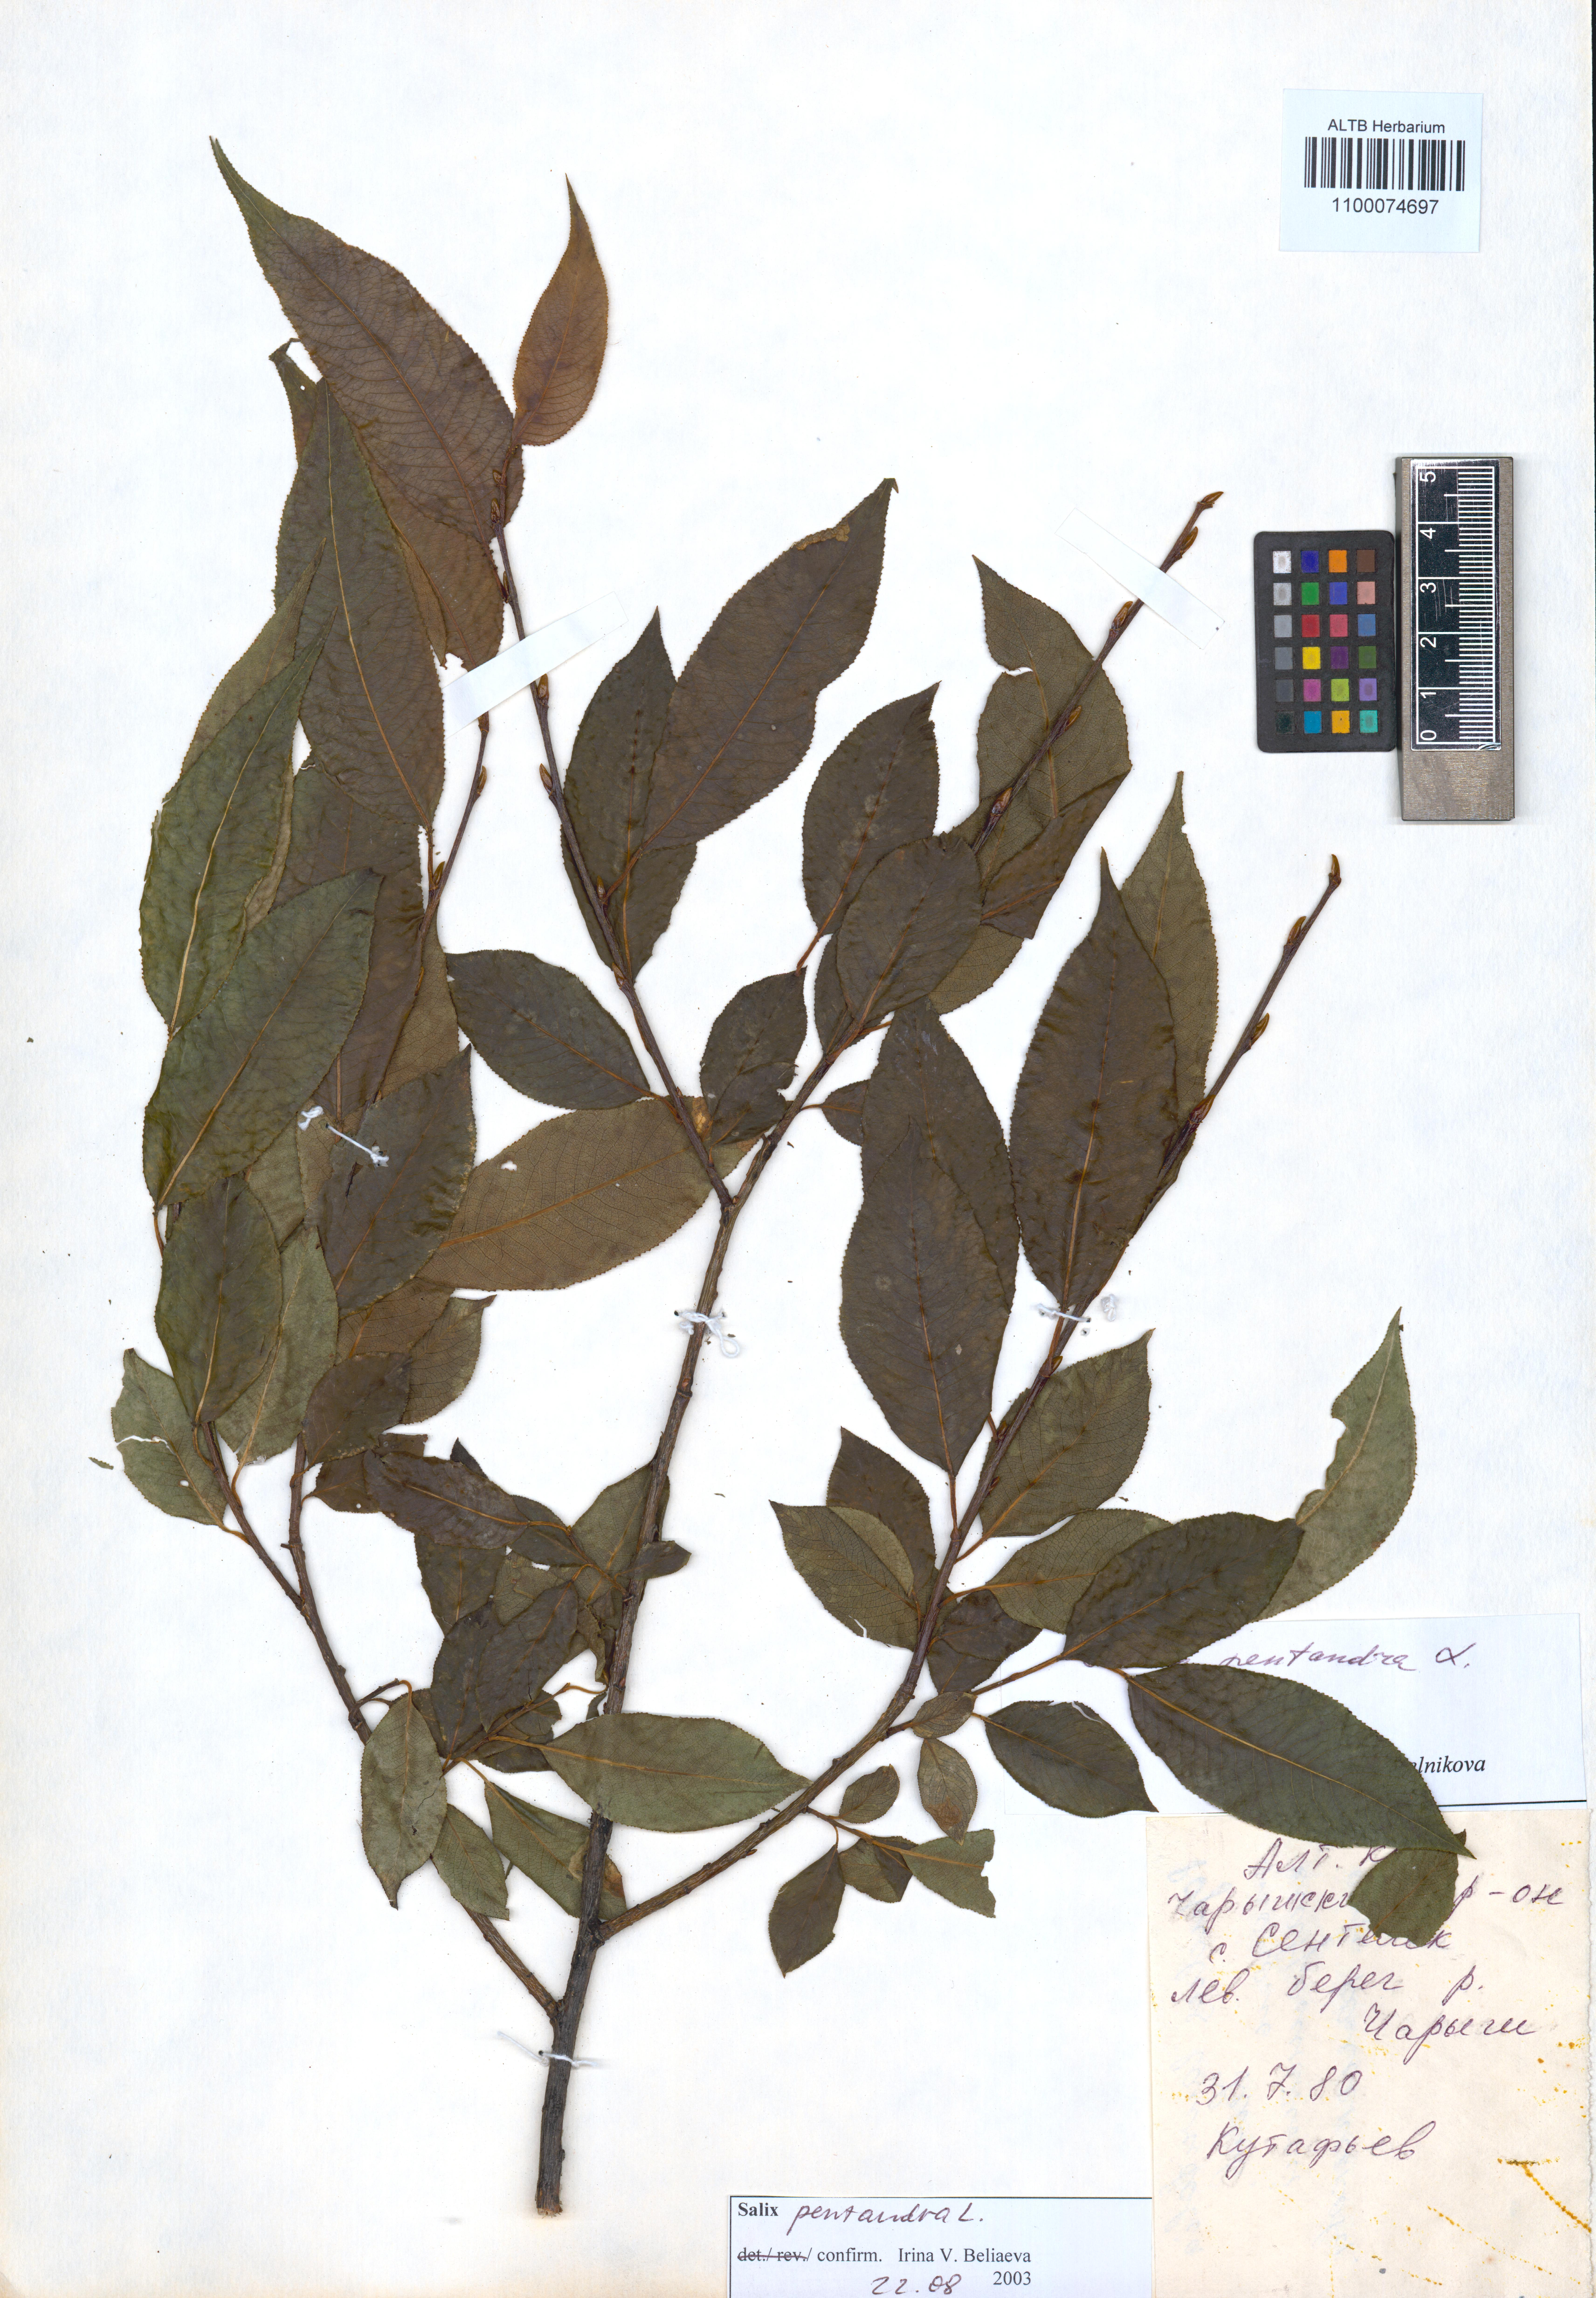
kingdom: Plantae
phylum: Tracheophyta
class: Magnoliopsida
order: Malpighiales
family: Salicaceae
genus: Salix
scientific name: Salix pentandra
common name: Bay willow
